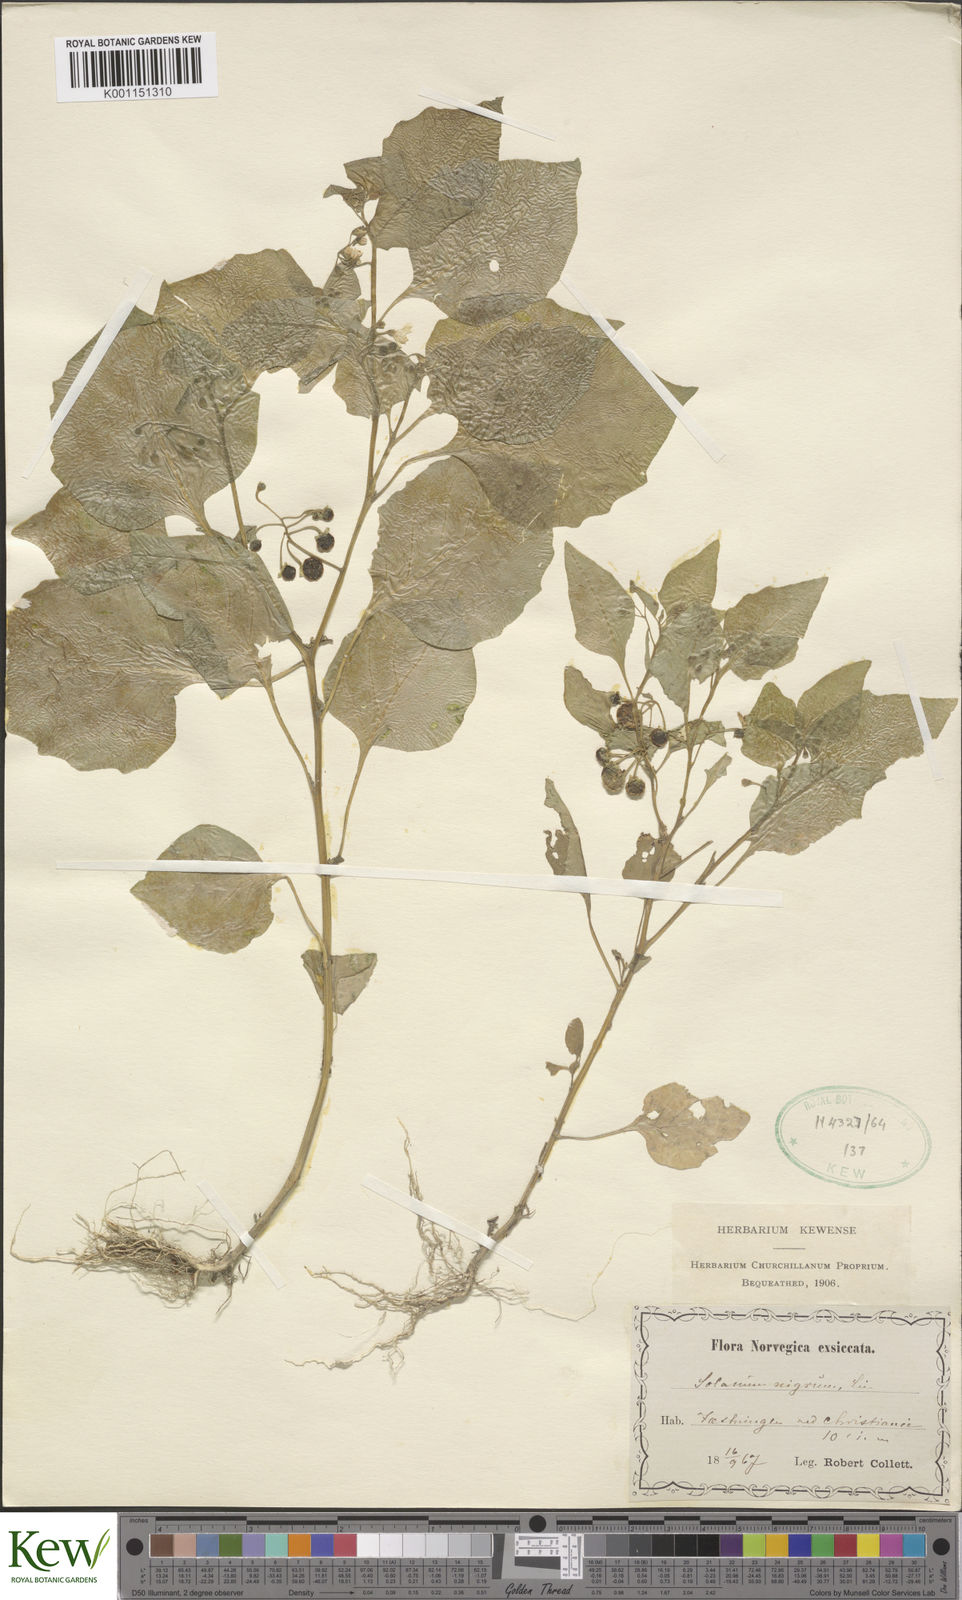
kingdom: Plantae
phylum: Tracheophyta
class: Magnoliopsida
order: Solanales
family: Solanaceae
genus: Solanum
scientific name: Solanum nigrum
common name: Black nightshade
